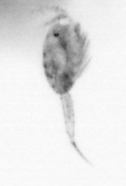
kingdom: Animalia
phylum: Arthropoda
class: Copepoda
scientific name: Copepoda
